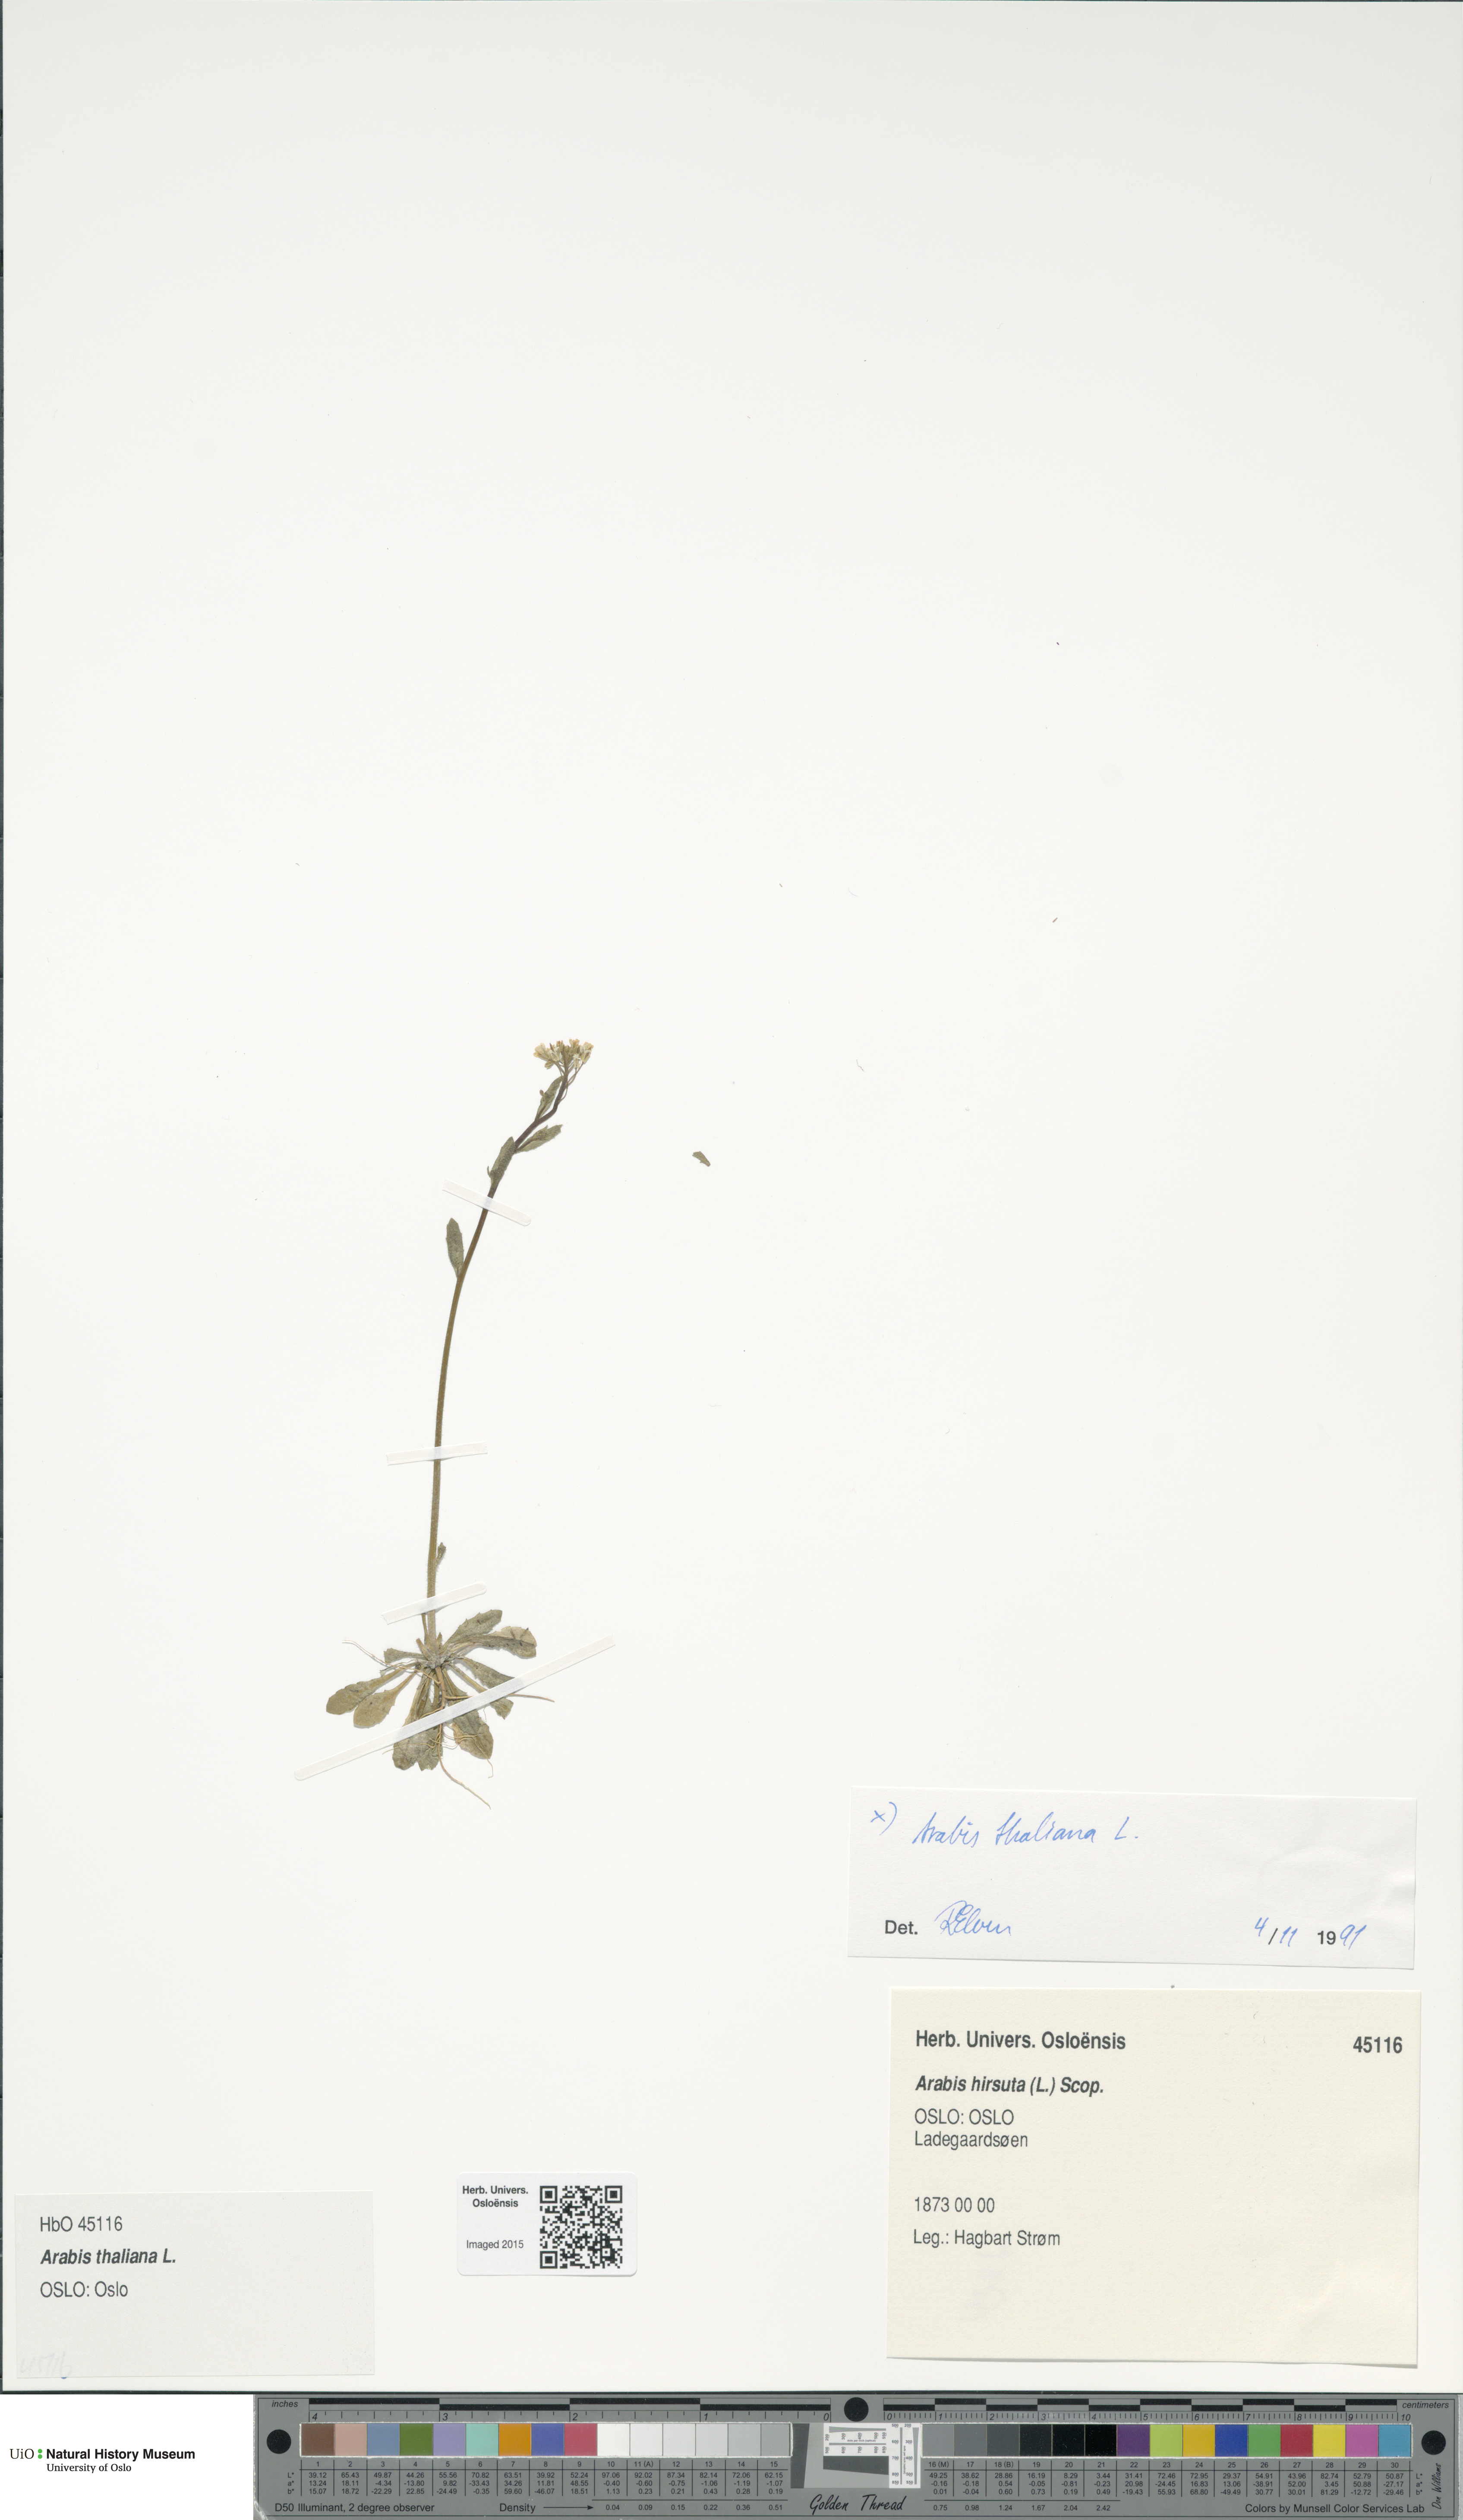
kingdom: Plantae
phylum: Tracheophyta
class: Magnoliopsida
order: Brassicales
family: Brassicaceae
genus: Arabidopsis
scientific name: Arabidopsis thaliana
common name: Thale cress
